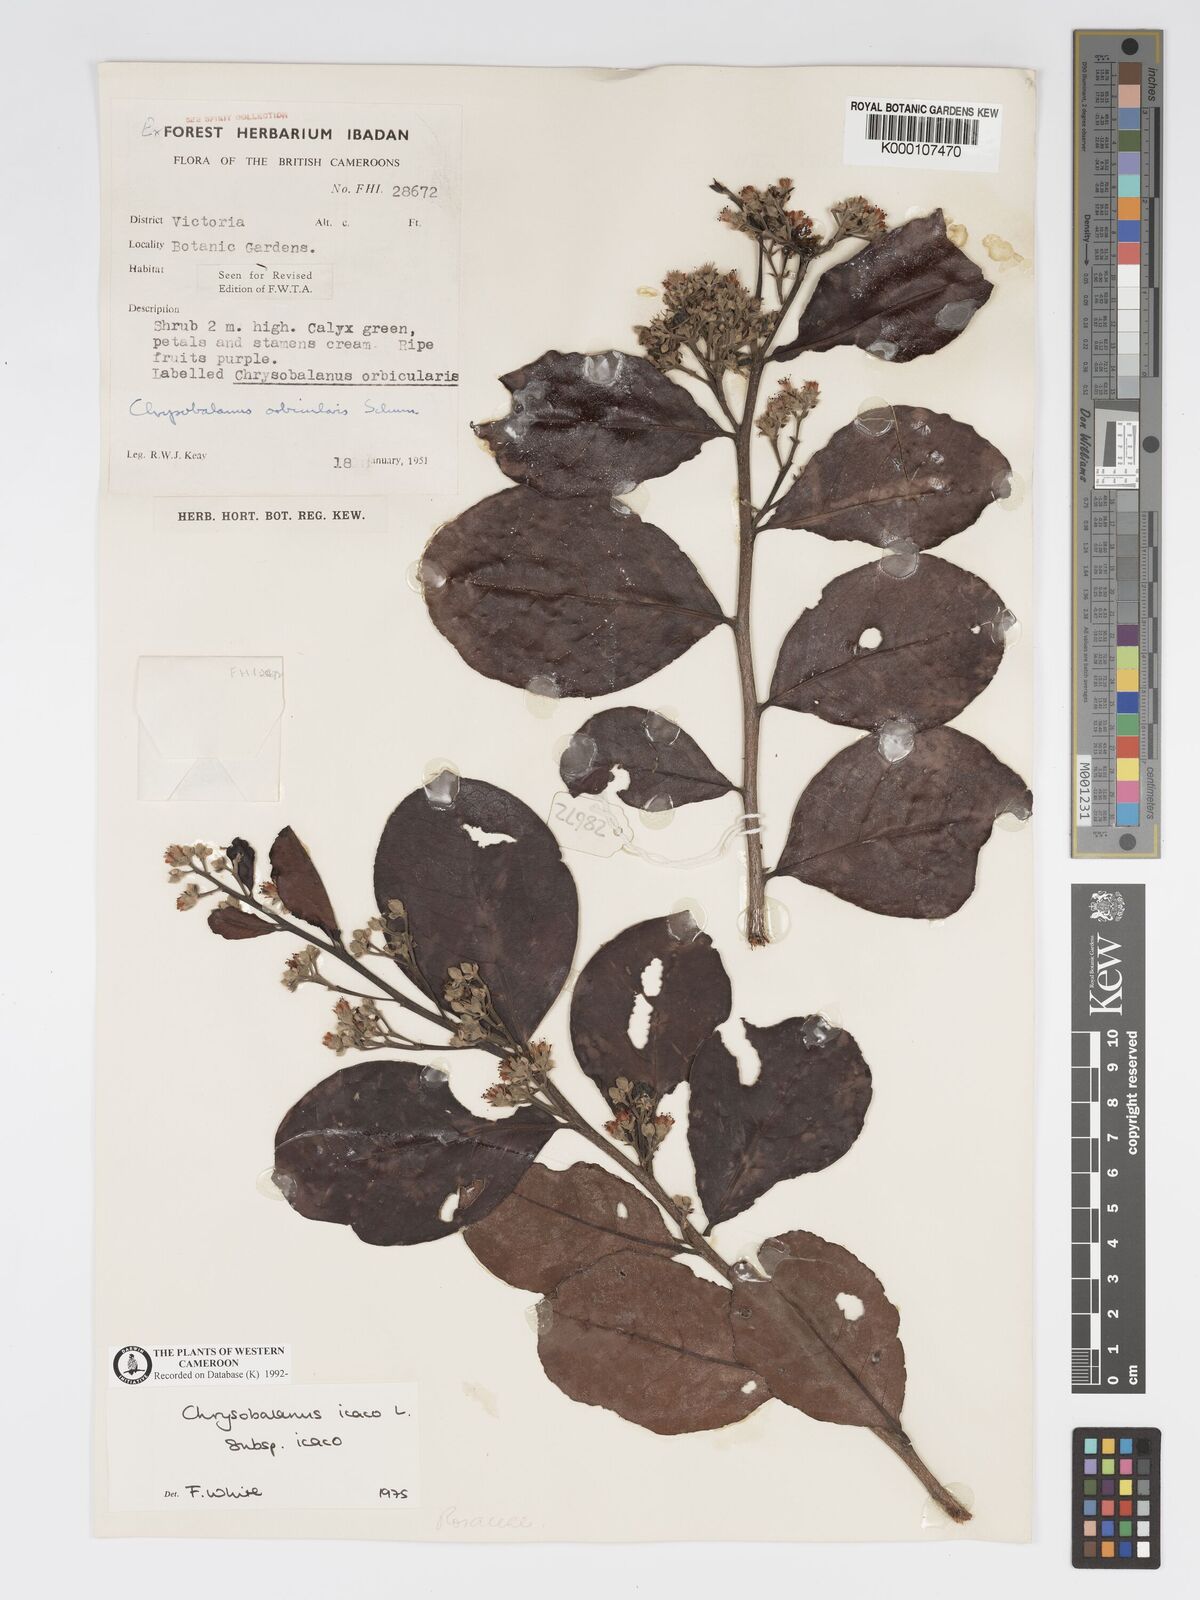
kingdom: Plantae
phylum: Tracheophyta
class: Magnoliopsida
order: Malpighiales
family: Chrysobalanaceae
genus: Chrysobalanus
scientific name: Chrysobalanus icaco
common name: Coco plum
